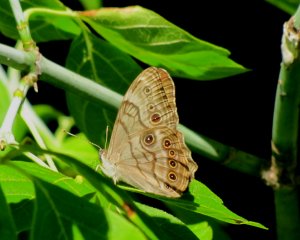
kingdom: Animalia
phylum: Arthropoda
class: Insecta
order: Lepidoptera
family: Nymphalidae
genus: Lethe
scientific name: Lethe anthedon
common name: Northern Pearly-Eye
